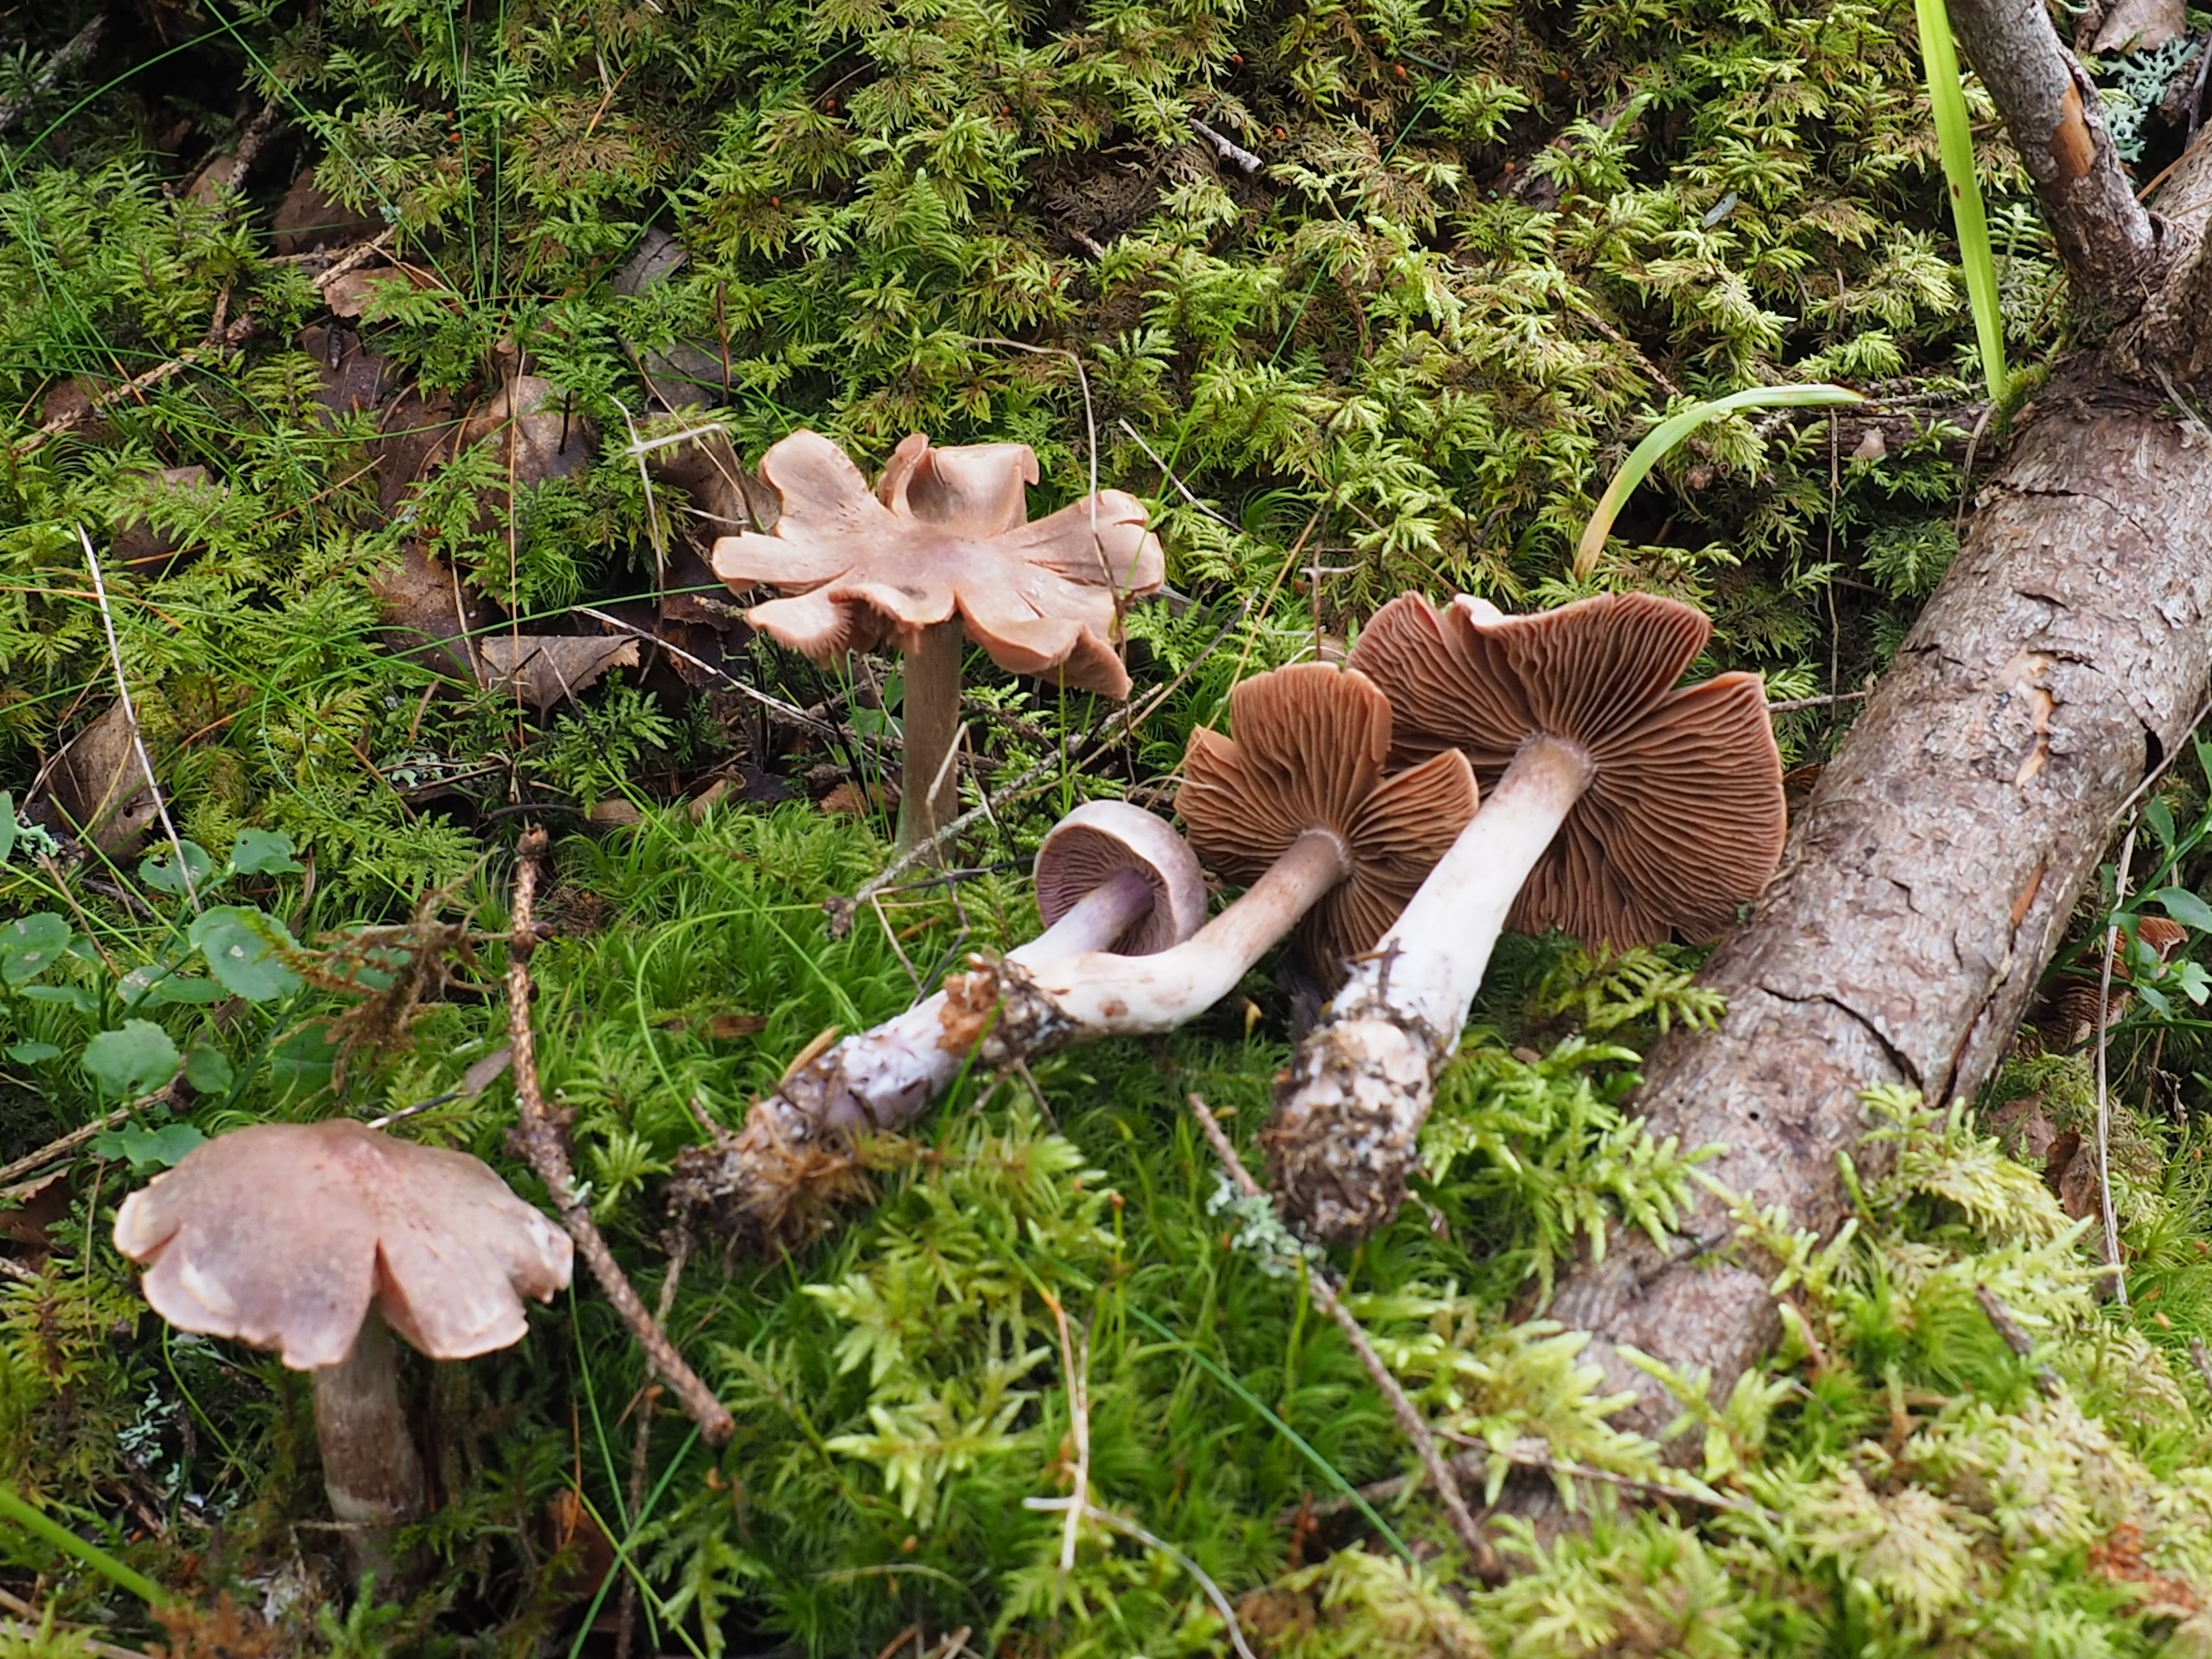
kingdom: Fungi
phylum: Basidiomycota
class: Agaricomycetes
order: Agaricales
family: Cortinariaceae
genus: Cortinarius
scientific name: Cortinarius malachius
